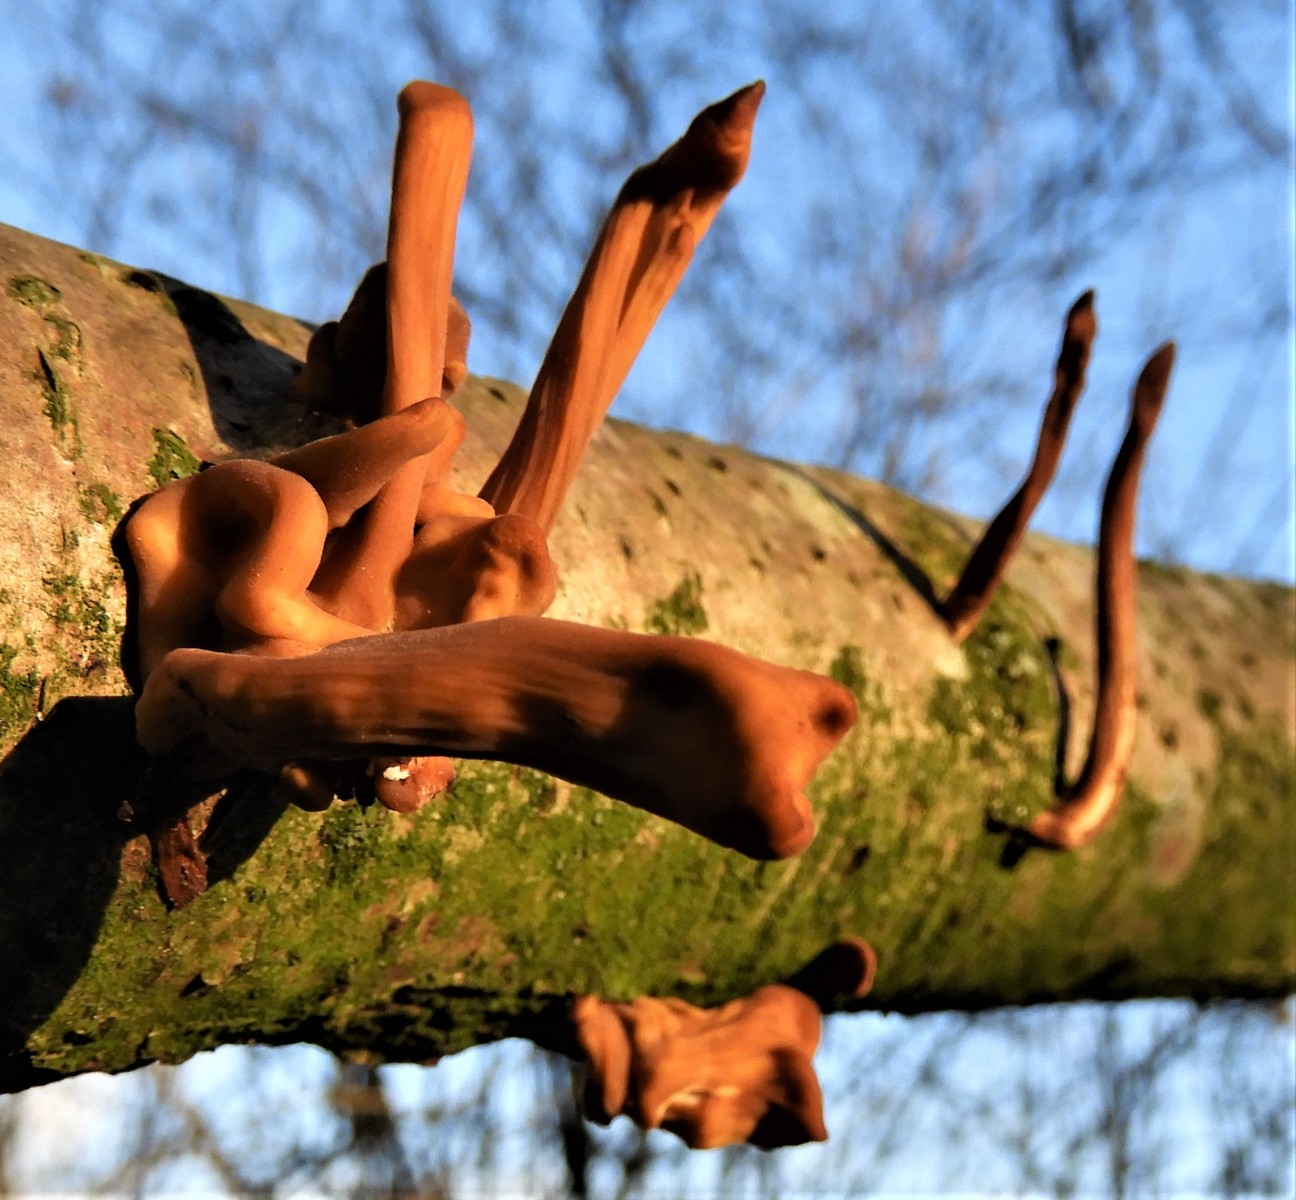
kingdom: Fungi
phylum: Basidiomycota
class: Agaricomycetes
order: Agaricales
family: Typhulaceae
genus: Typhula
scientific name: Typhula fistulosa
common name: pibet rørkølle
